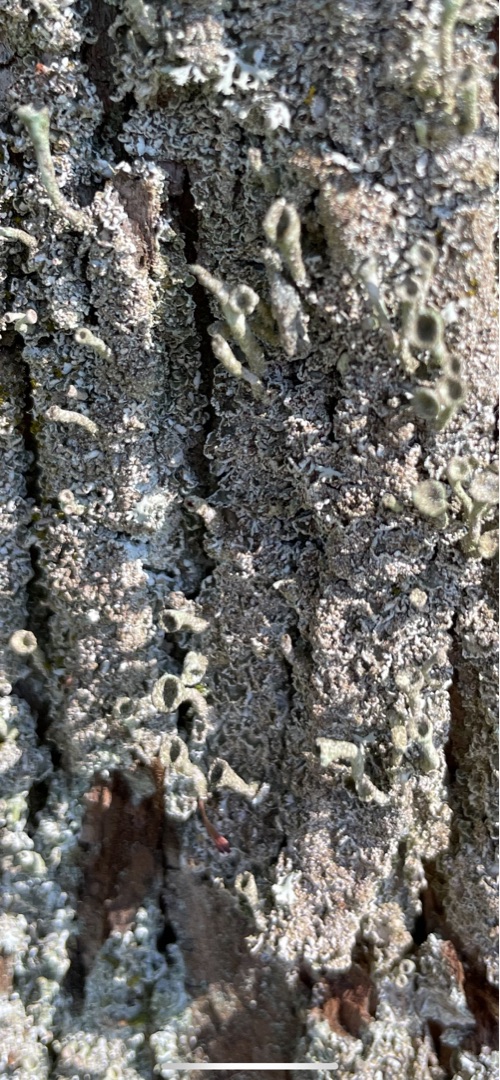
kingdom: Fungi
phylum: Ascomycota
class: Lecanoromycetes
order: Lecanorales
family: Cladoniaceae
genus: Cladonia
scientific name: Cladonia
